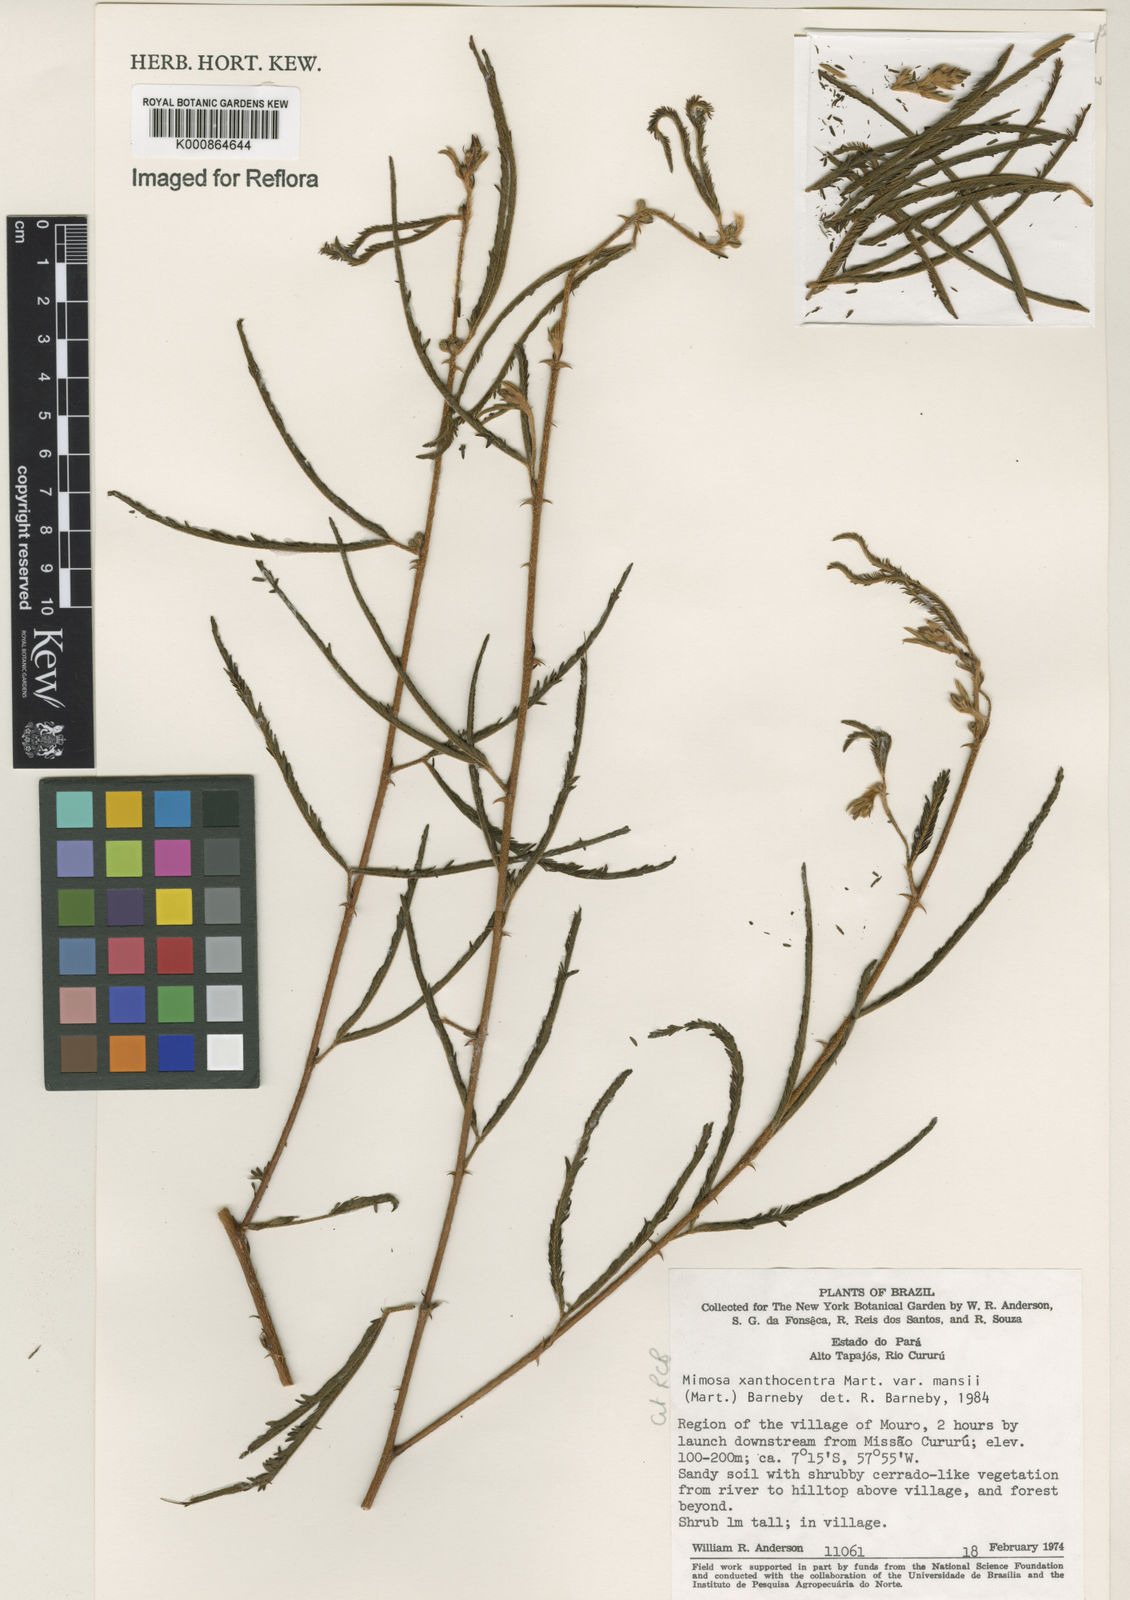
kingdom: Plantae
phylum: Tracheophyta
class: Magnoliopsida
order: Fabales
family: Fabaceae
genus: Mimosa
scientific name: Mimosa xanthocentra
